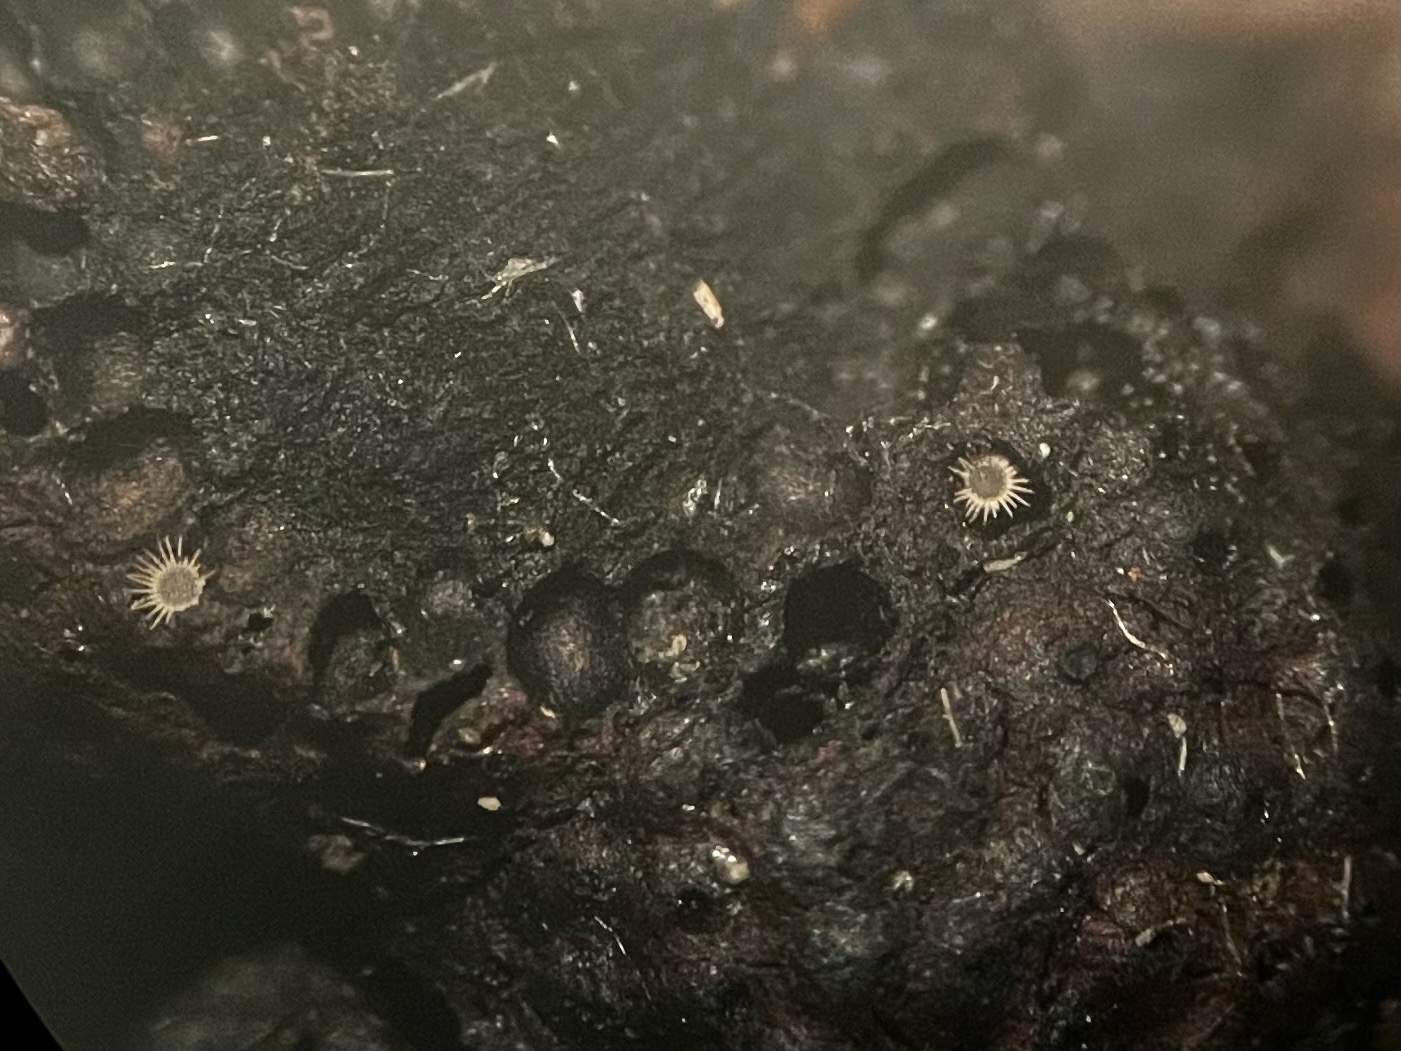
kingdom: Fungi
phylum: Ascomycota
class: Sordariomycetes
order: Xylariales
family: Hypoxylaceae
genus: Hypoxylon
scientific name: Hypoxylon fragiforme
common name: kuljordbær
